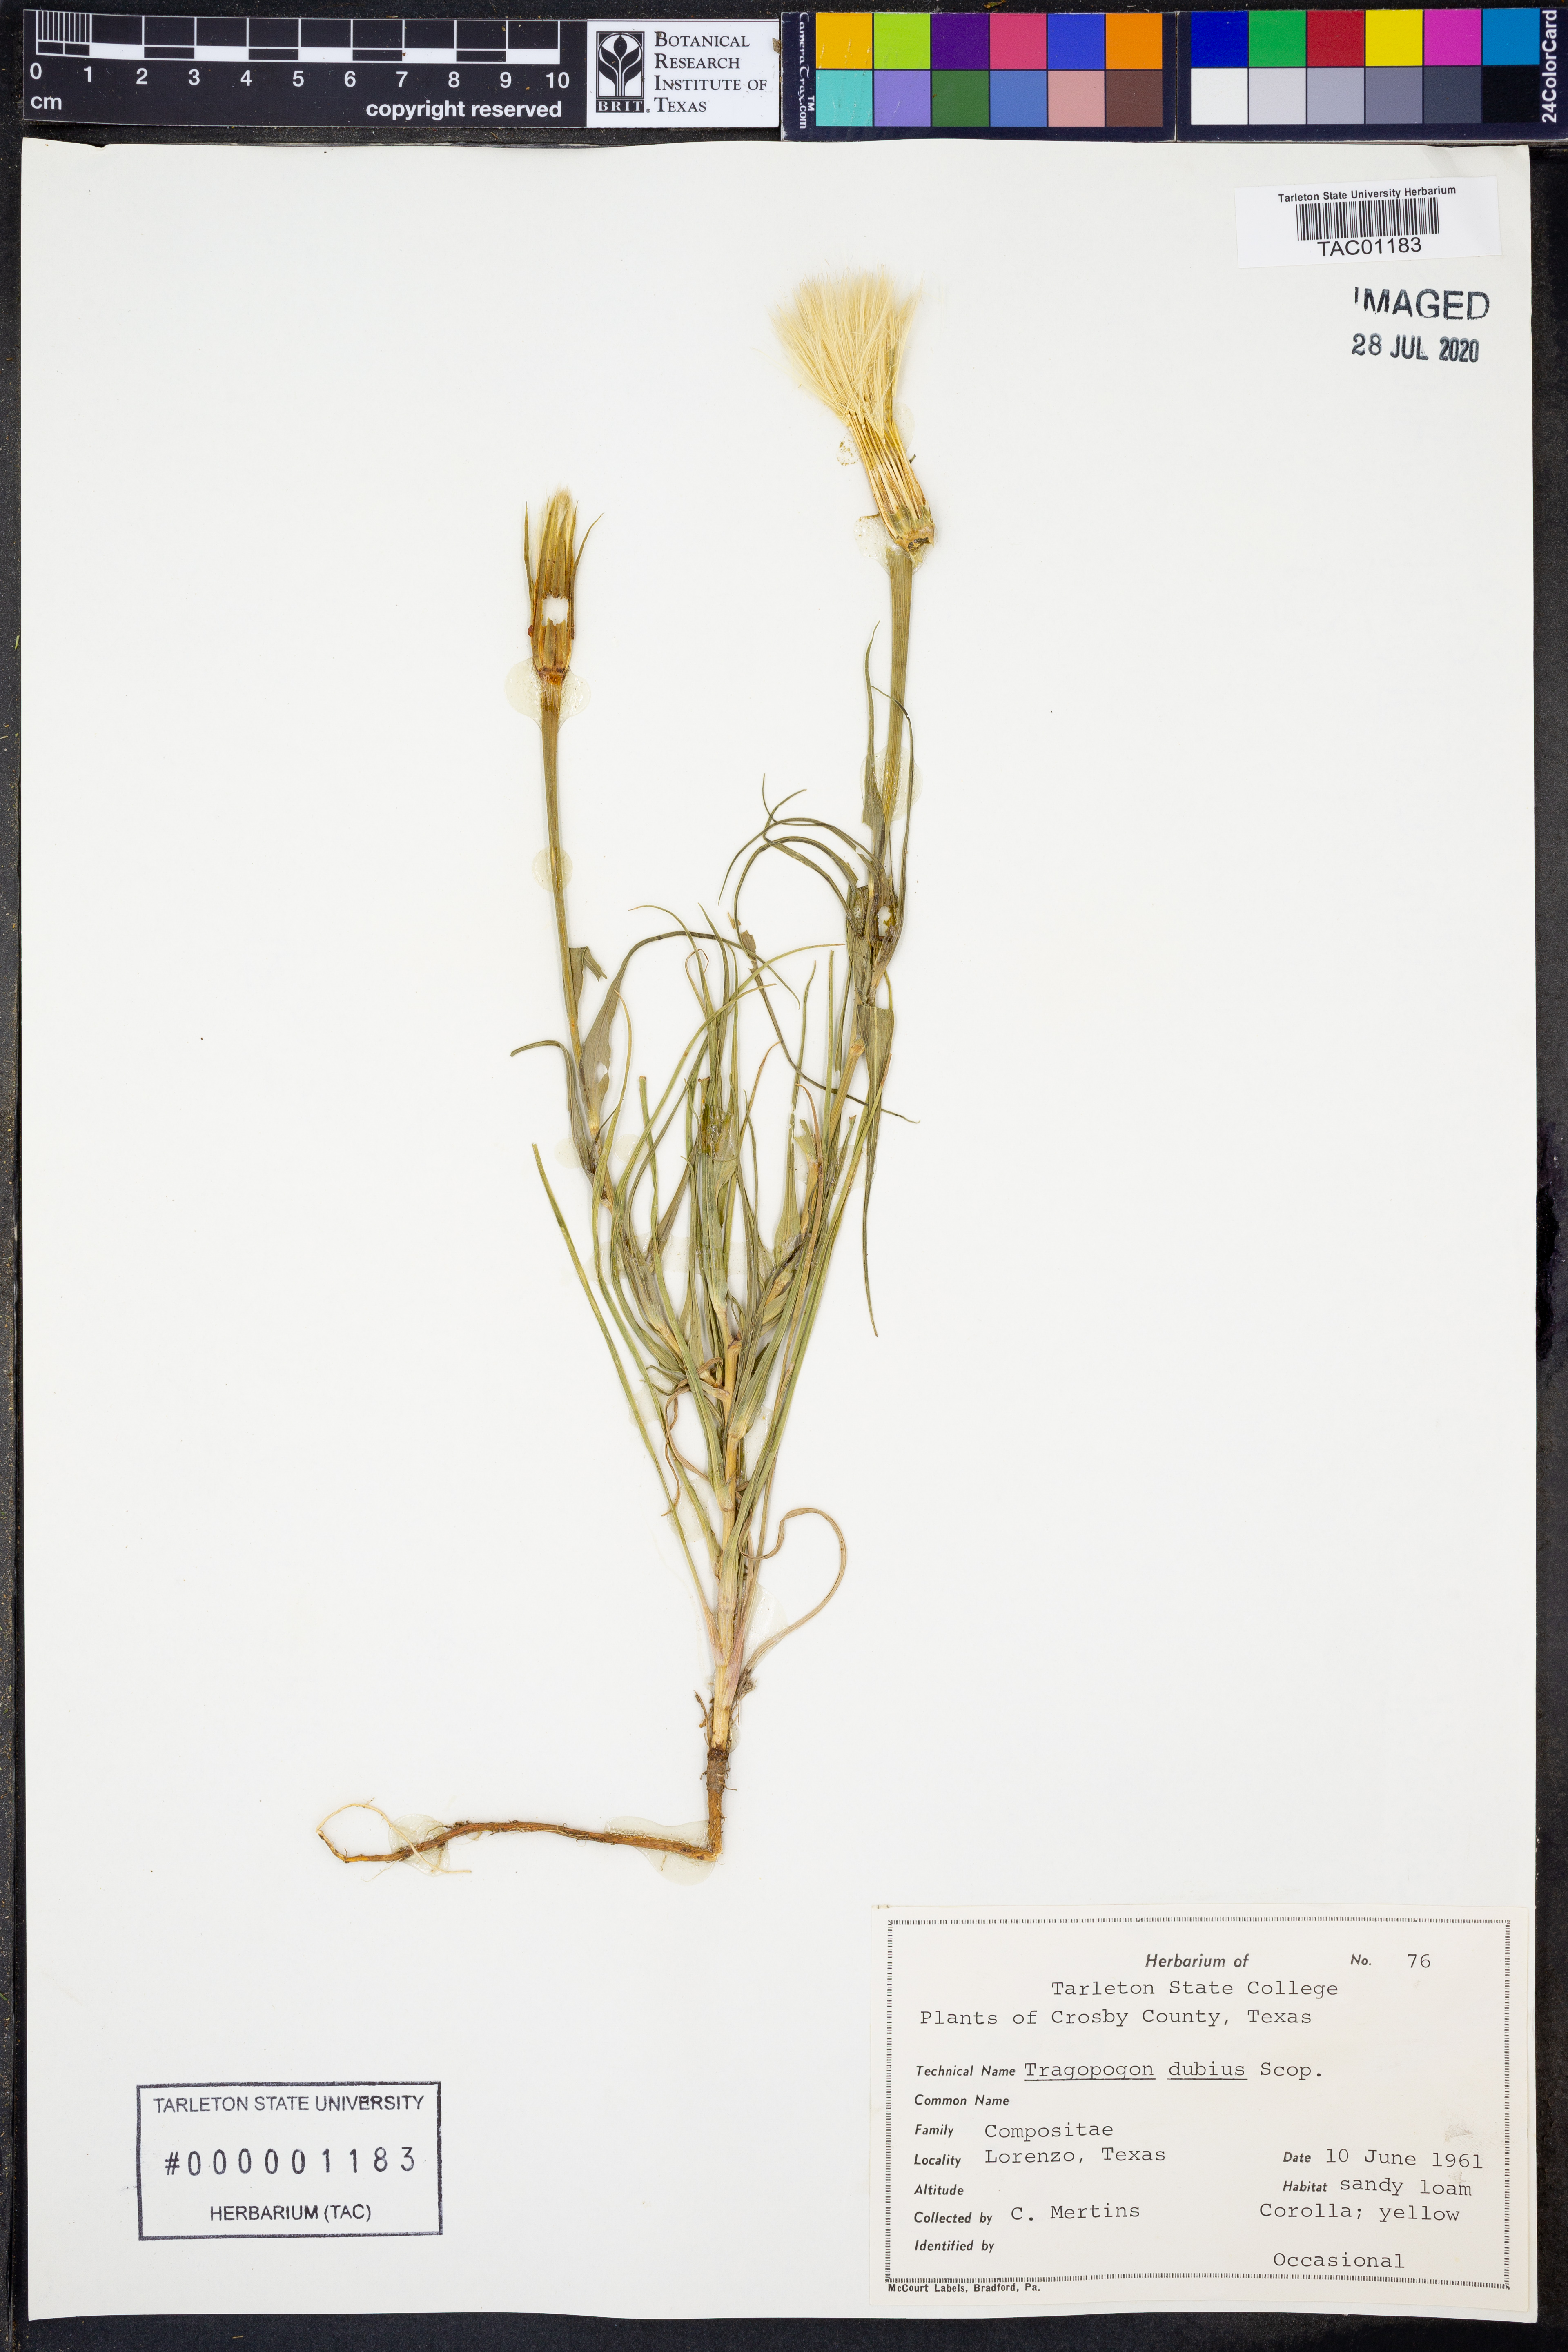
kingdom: Plantae
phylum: Tracheophyta
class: Magnoliopsida
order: Asterales
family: Asteraceae
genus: Tragopogon
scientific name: Tragopogon dubius
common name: Yellow salsify
